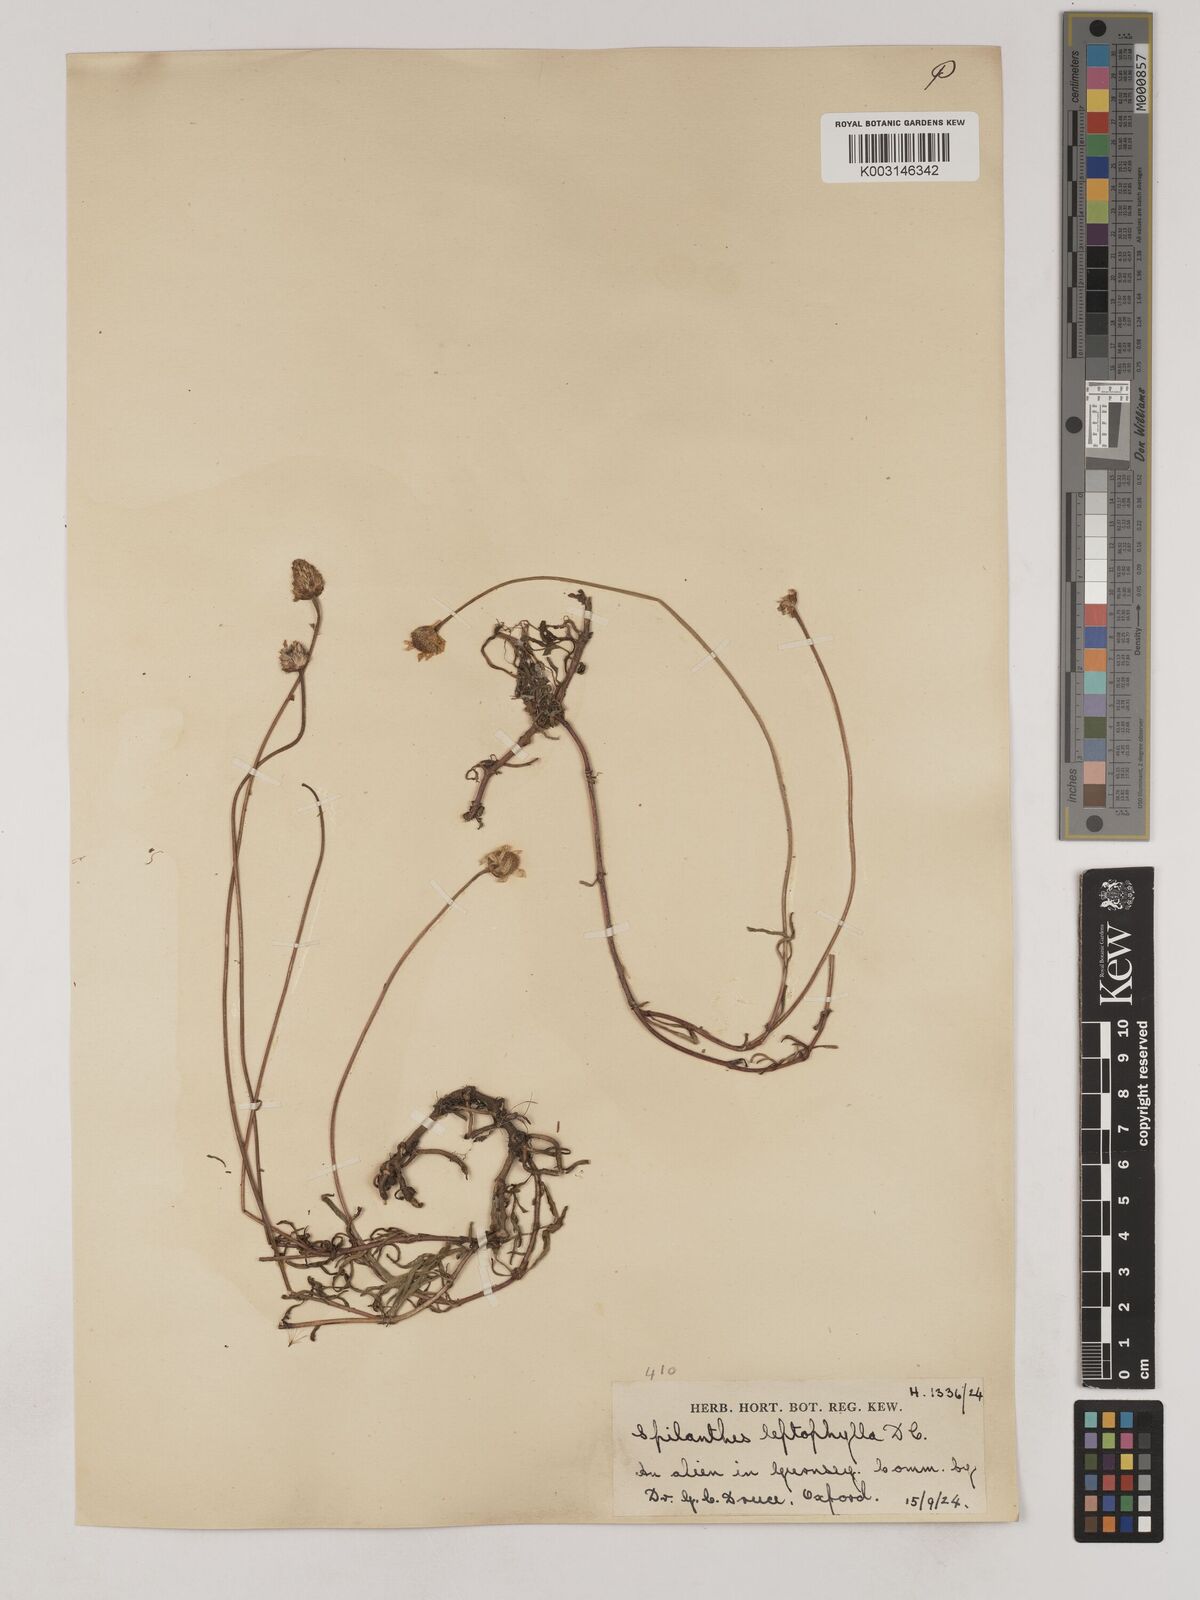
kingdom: Plantae
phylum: Tracheophyta
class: Magnoliopsida
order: Asterales
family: Asteraceae
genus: Acmella
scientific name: Acmella leptophylla
